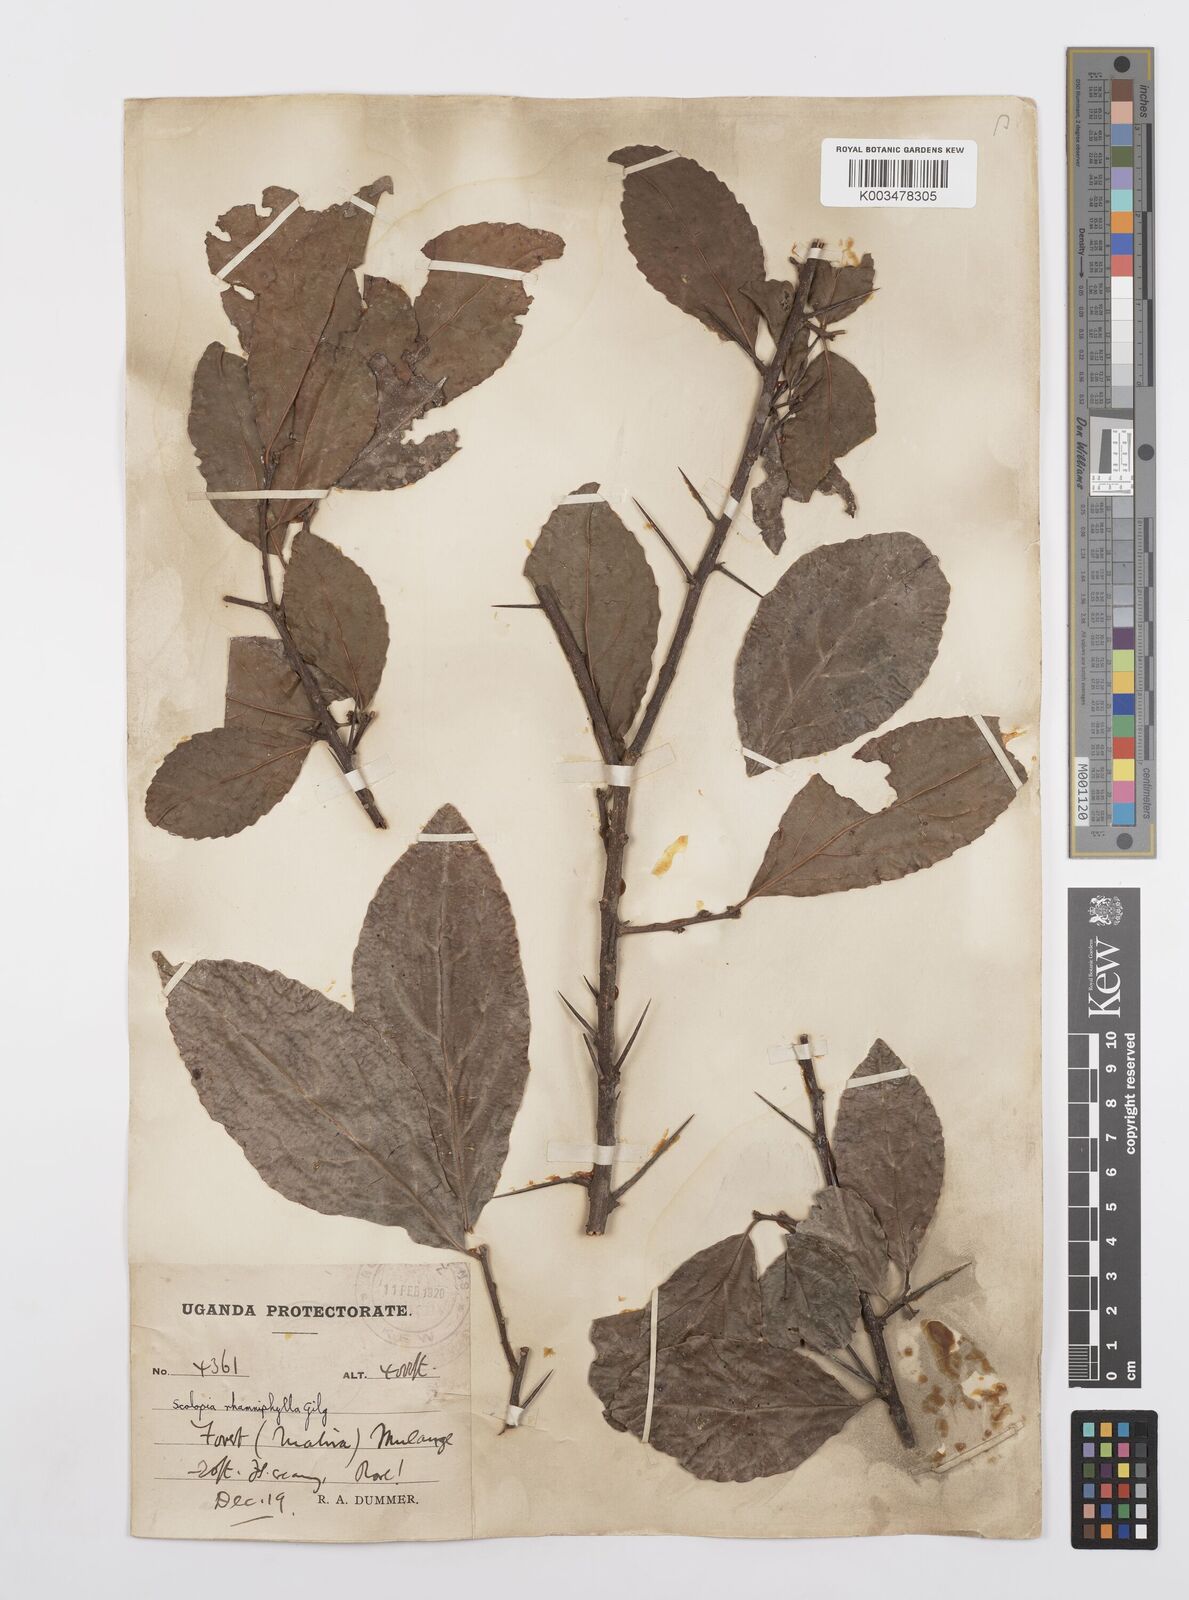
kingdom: Plantae
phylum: Tracheophyta
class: Magnoliopsida
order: Malpighiales
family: Salicaceae
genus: Scolopia
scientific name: Scolopia rhamniphylla
